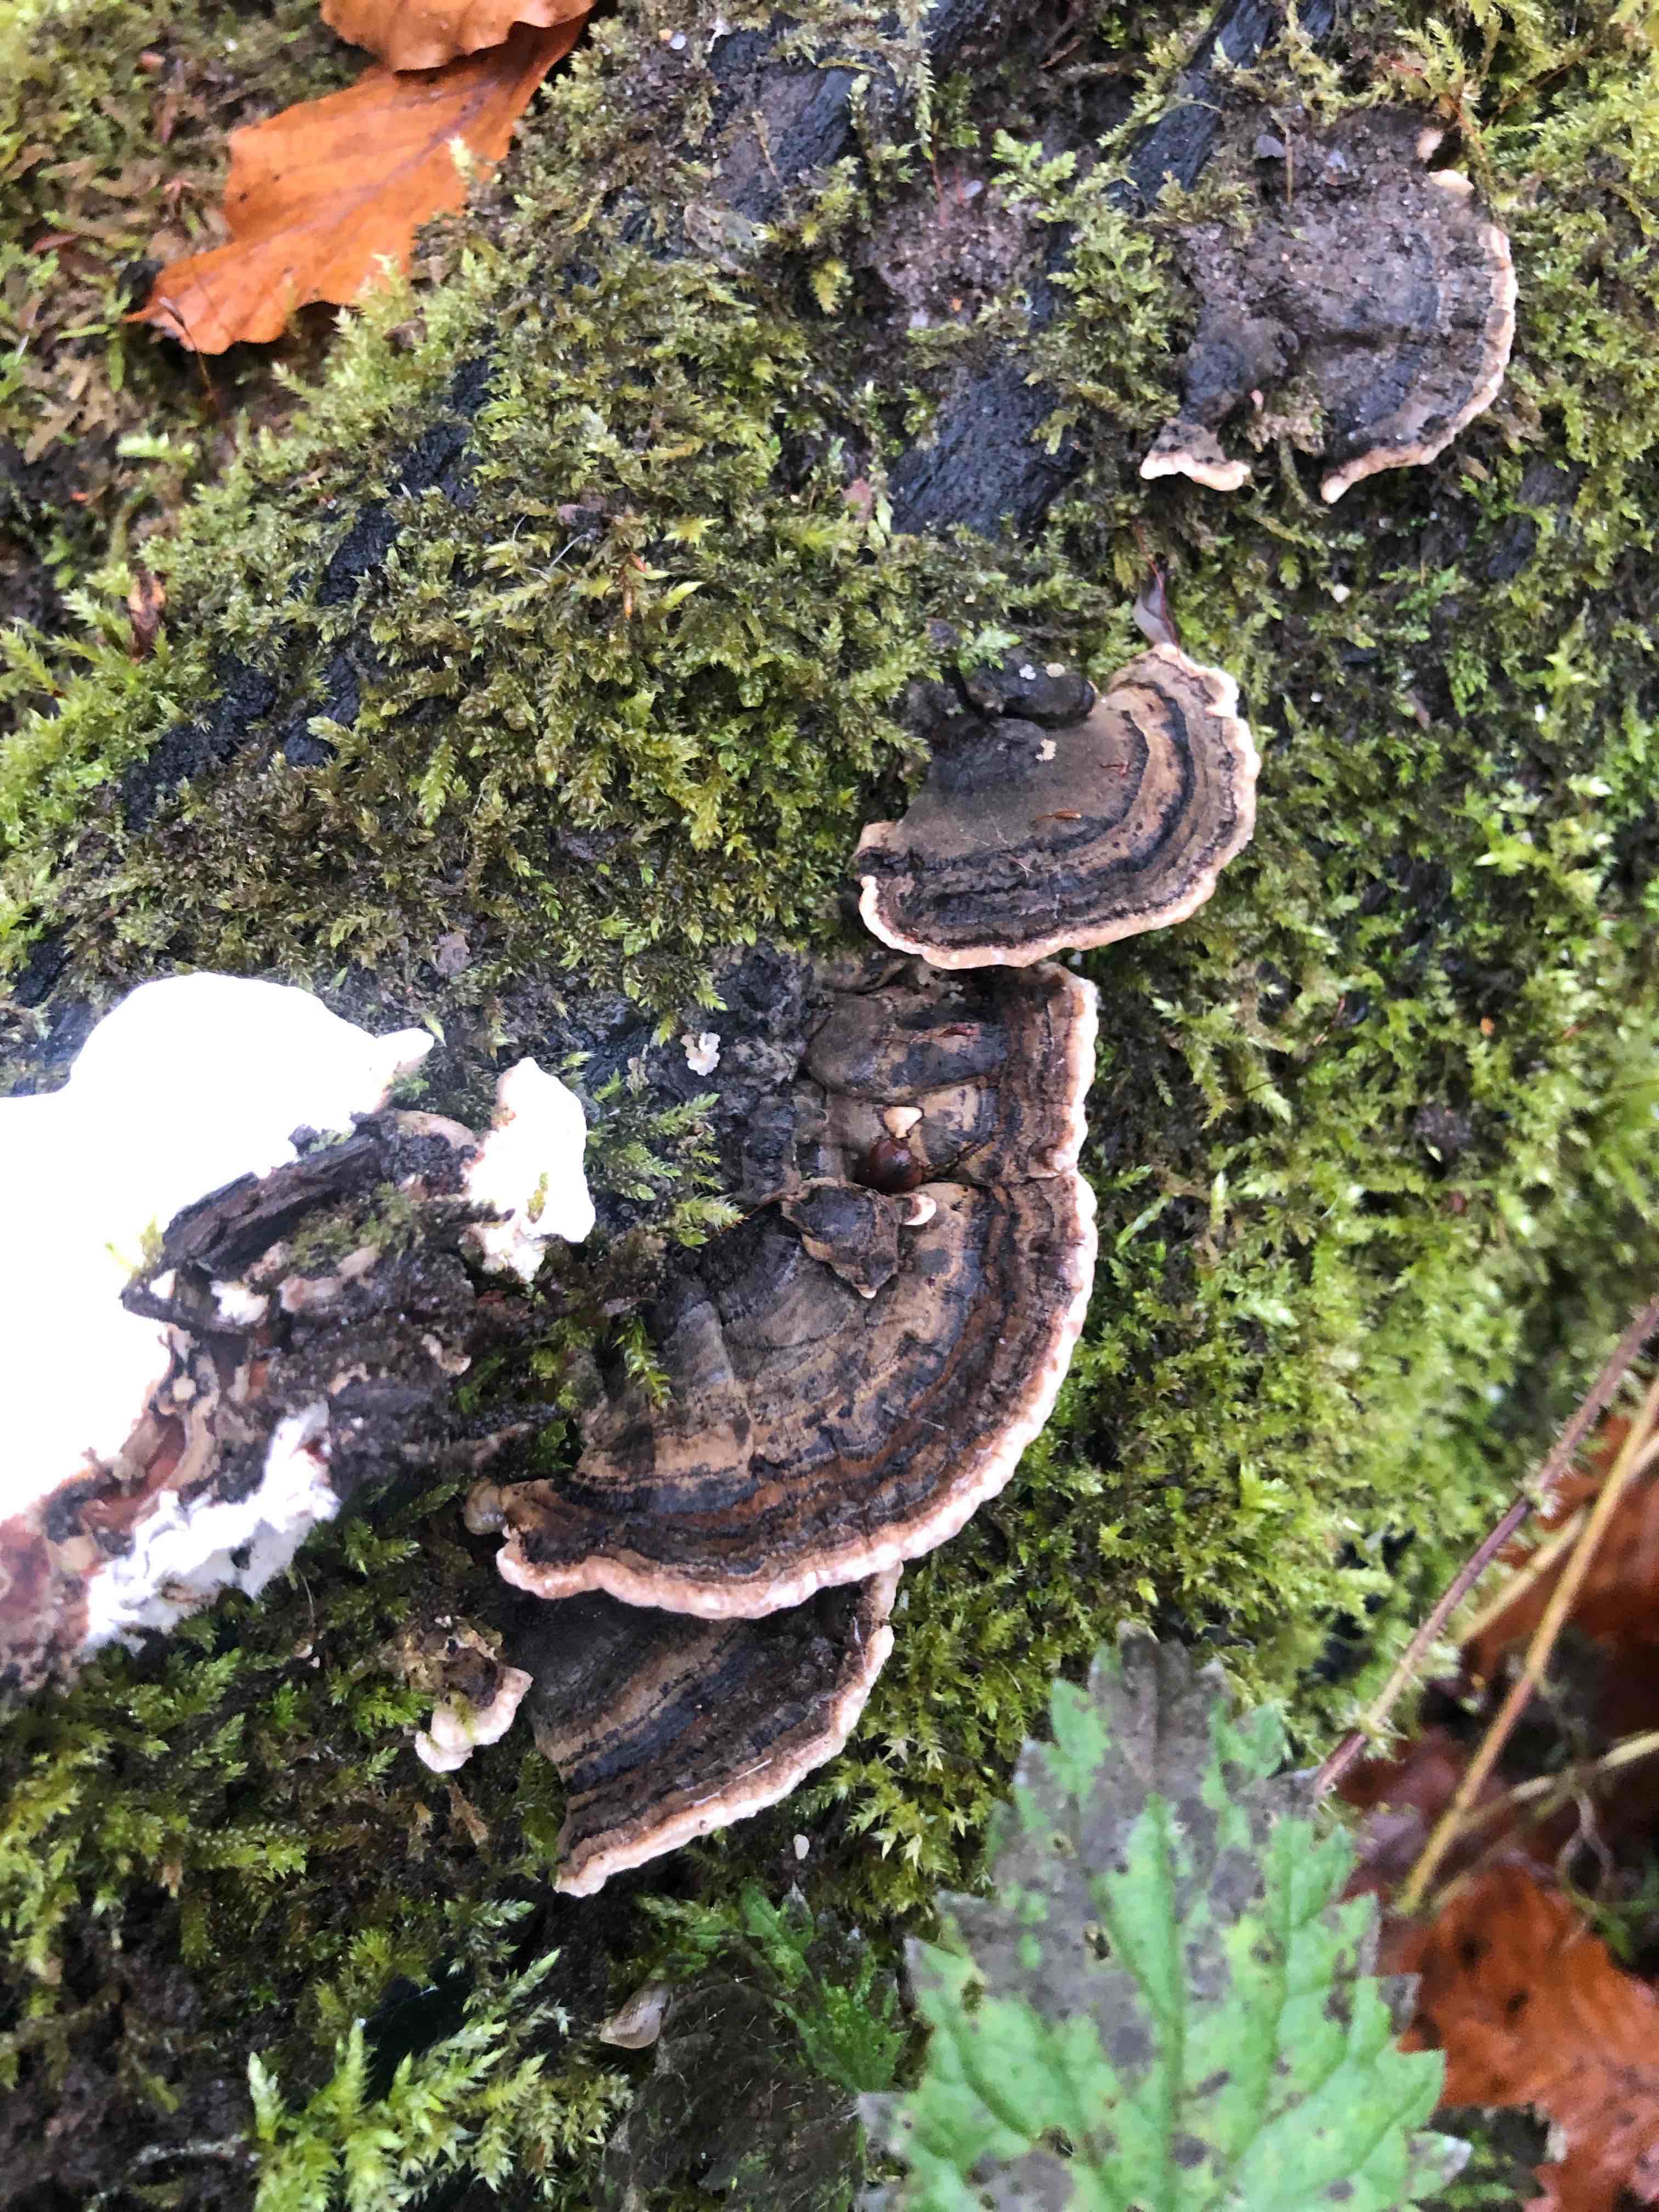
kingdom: Fungi
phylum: Basidiomycota
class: Agaricomycetes
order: Polyporales
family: Polyporaceae
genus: Trametes
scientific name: Trametes versicolor
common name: broget læderporesvamp
